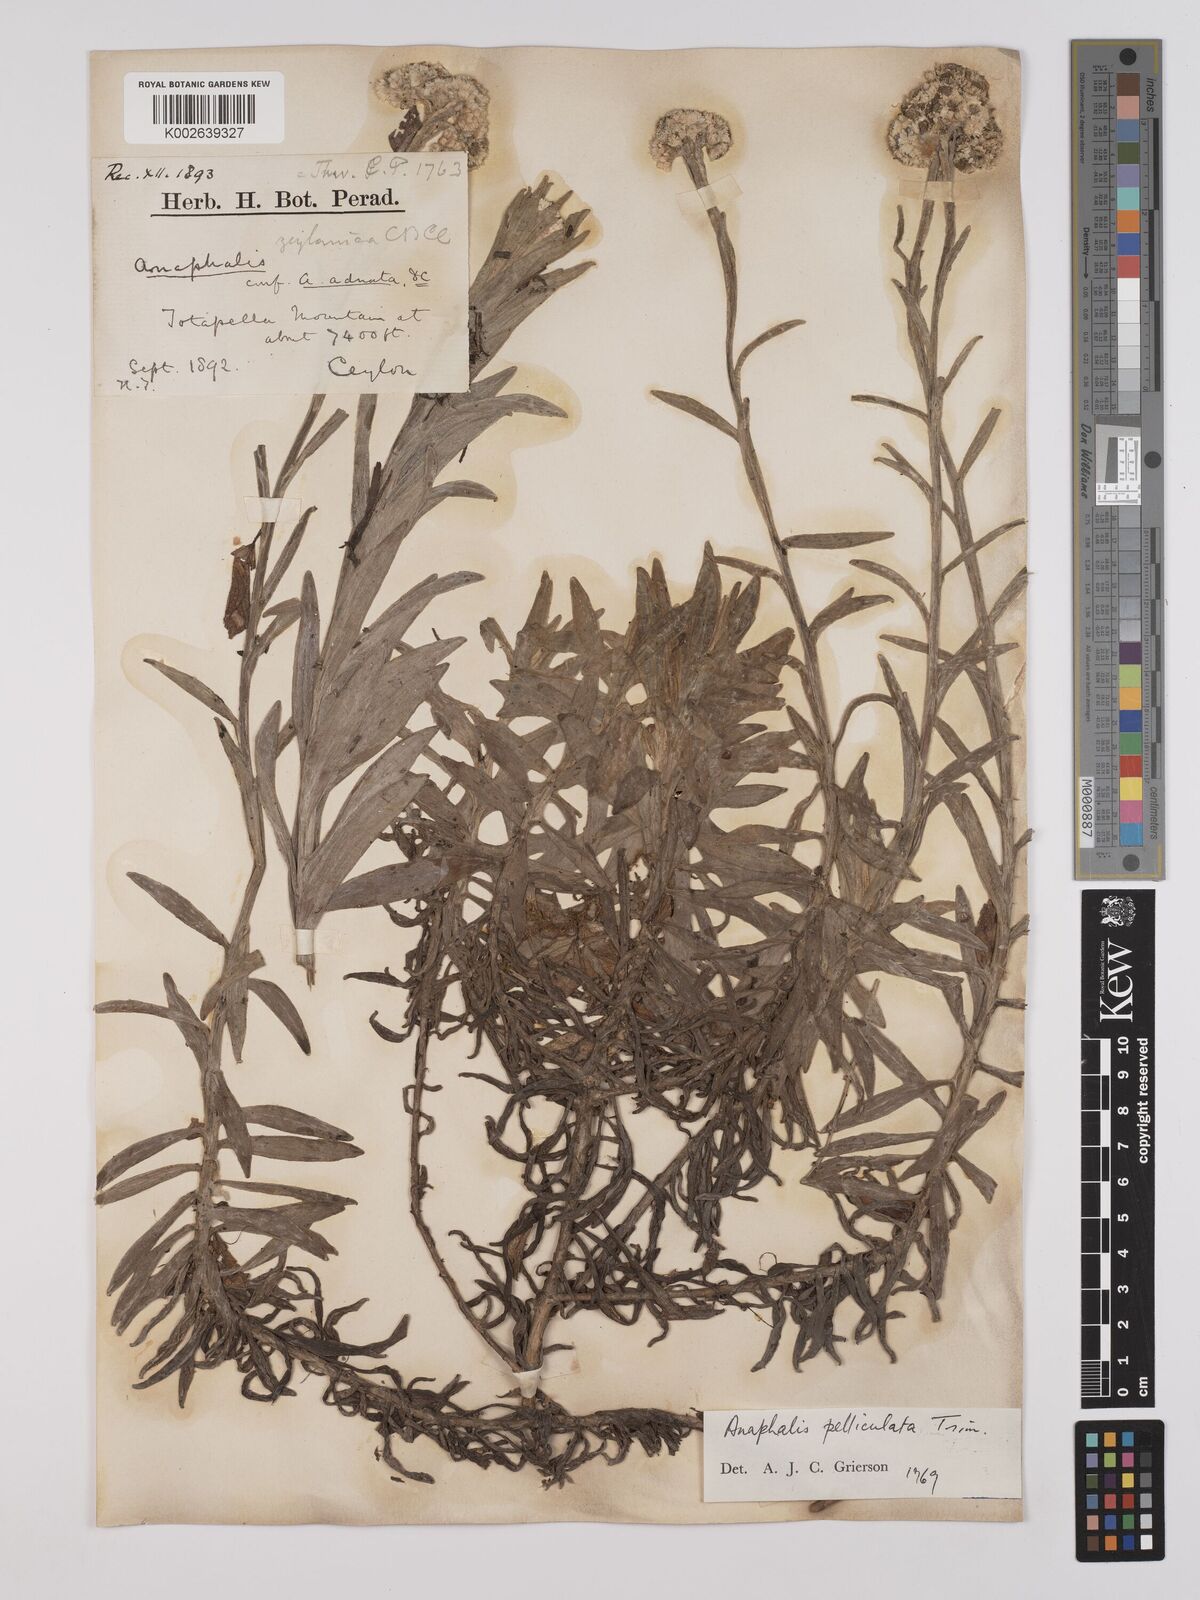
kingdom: Plantae
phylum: Tracheophyta
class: Magnoliopsida
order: Asterales
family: Asteraceae
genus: Anaphalis
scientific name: Anaphalis pelliculata
